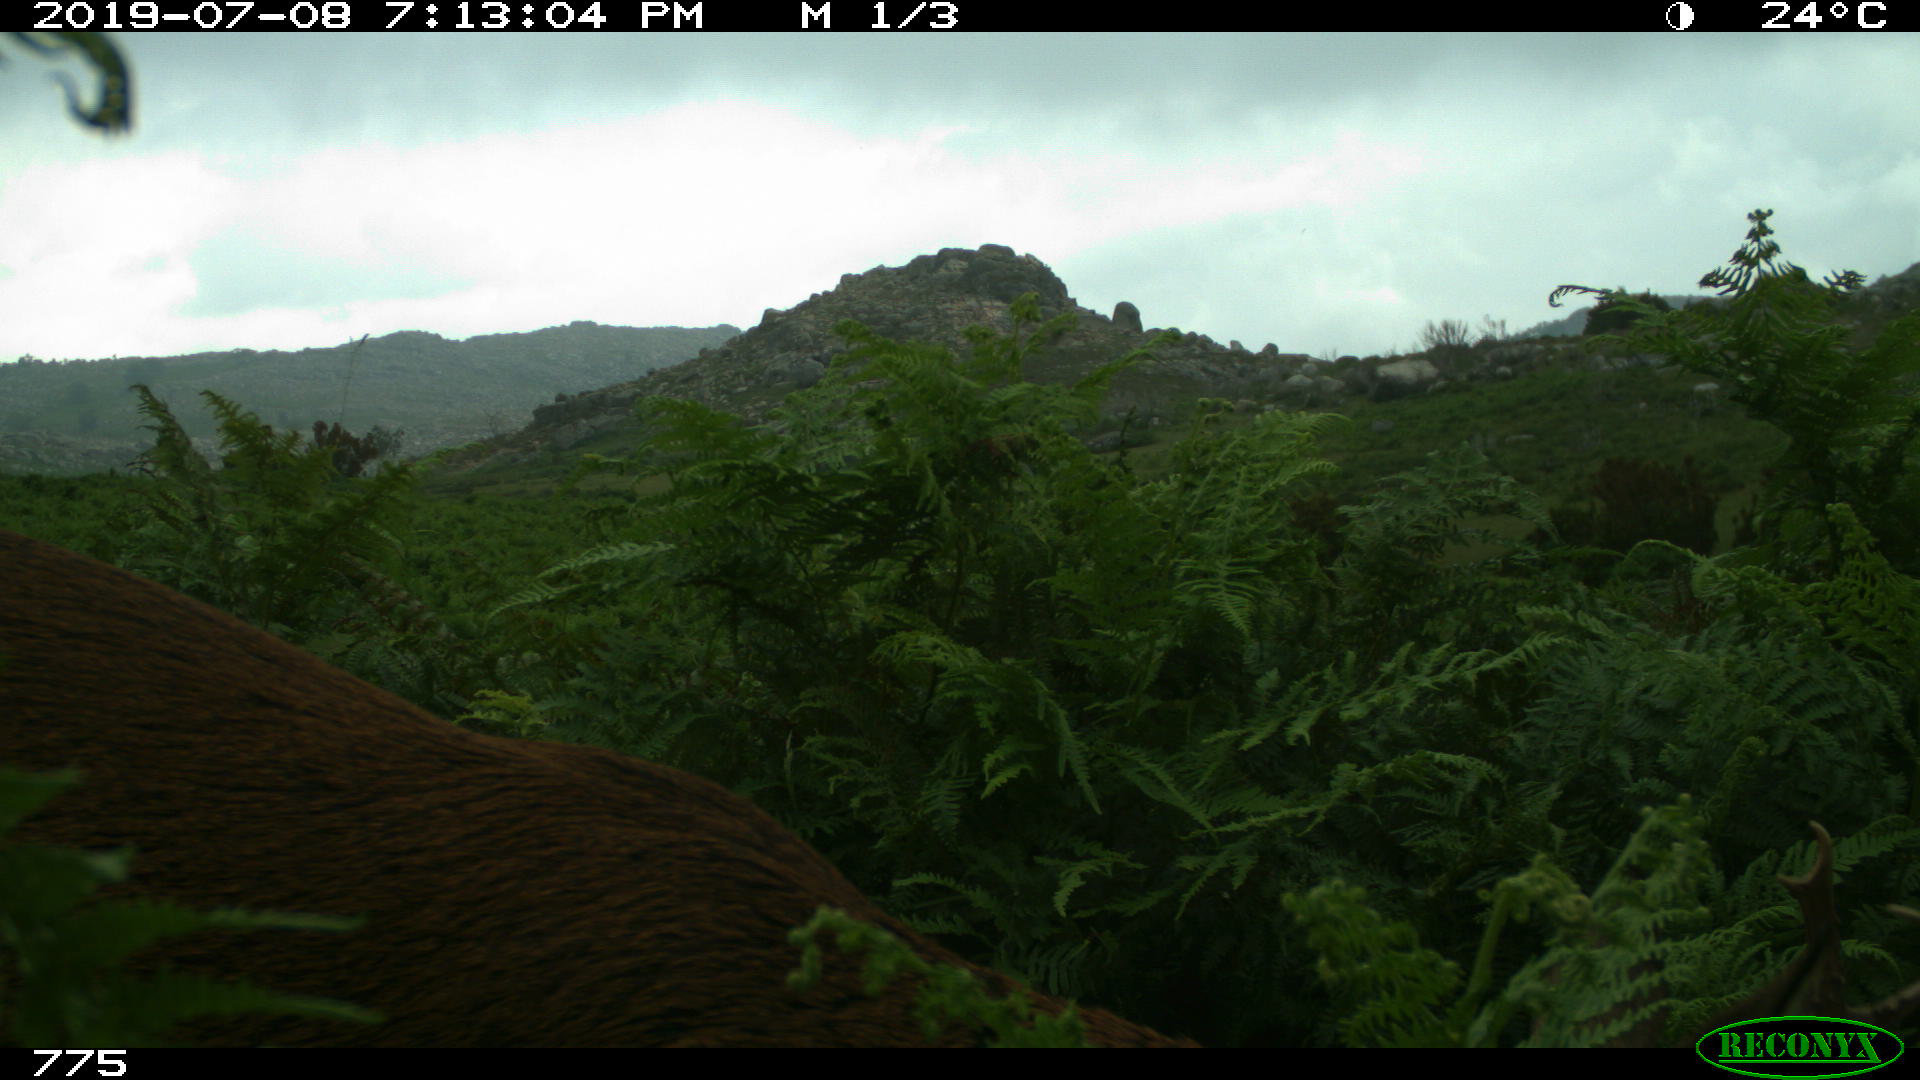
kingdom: Animalia
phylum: Chordata
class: Mammalia
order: Artiodactyla
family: Cervidae
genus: Capreolus
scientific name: Capreolus capreolus
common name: Western roe deer
